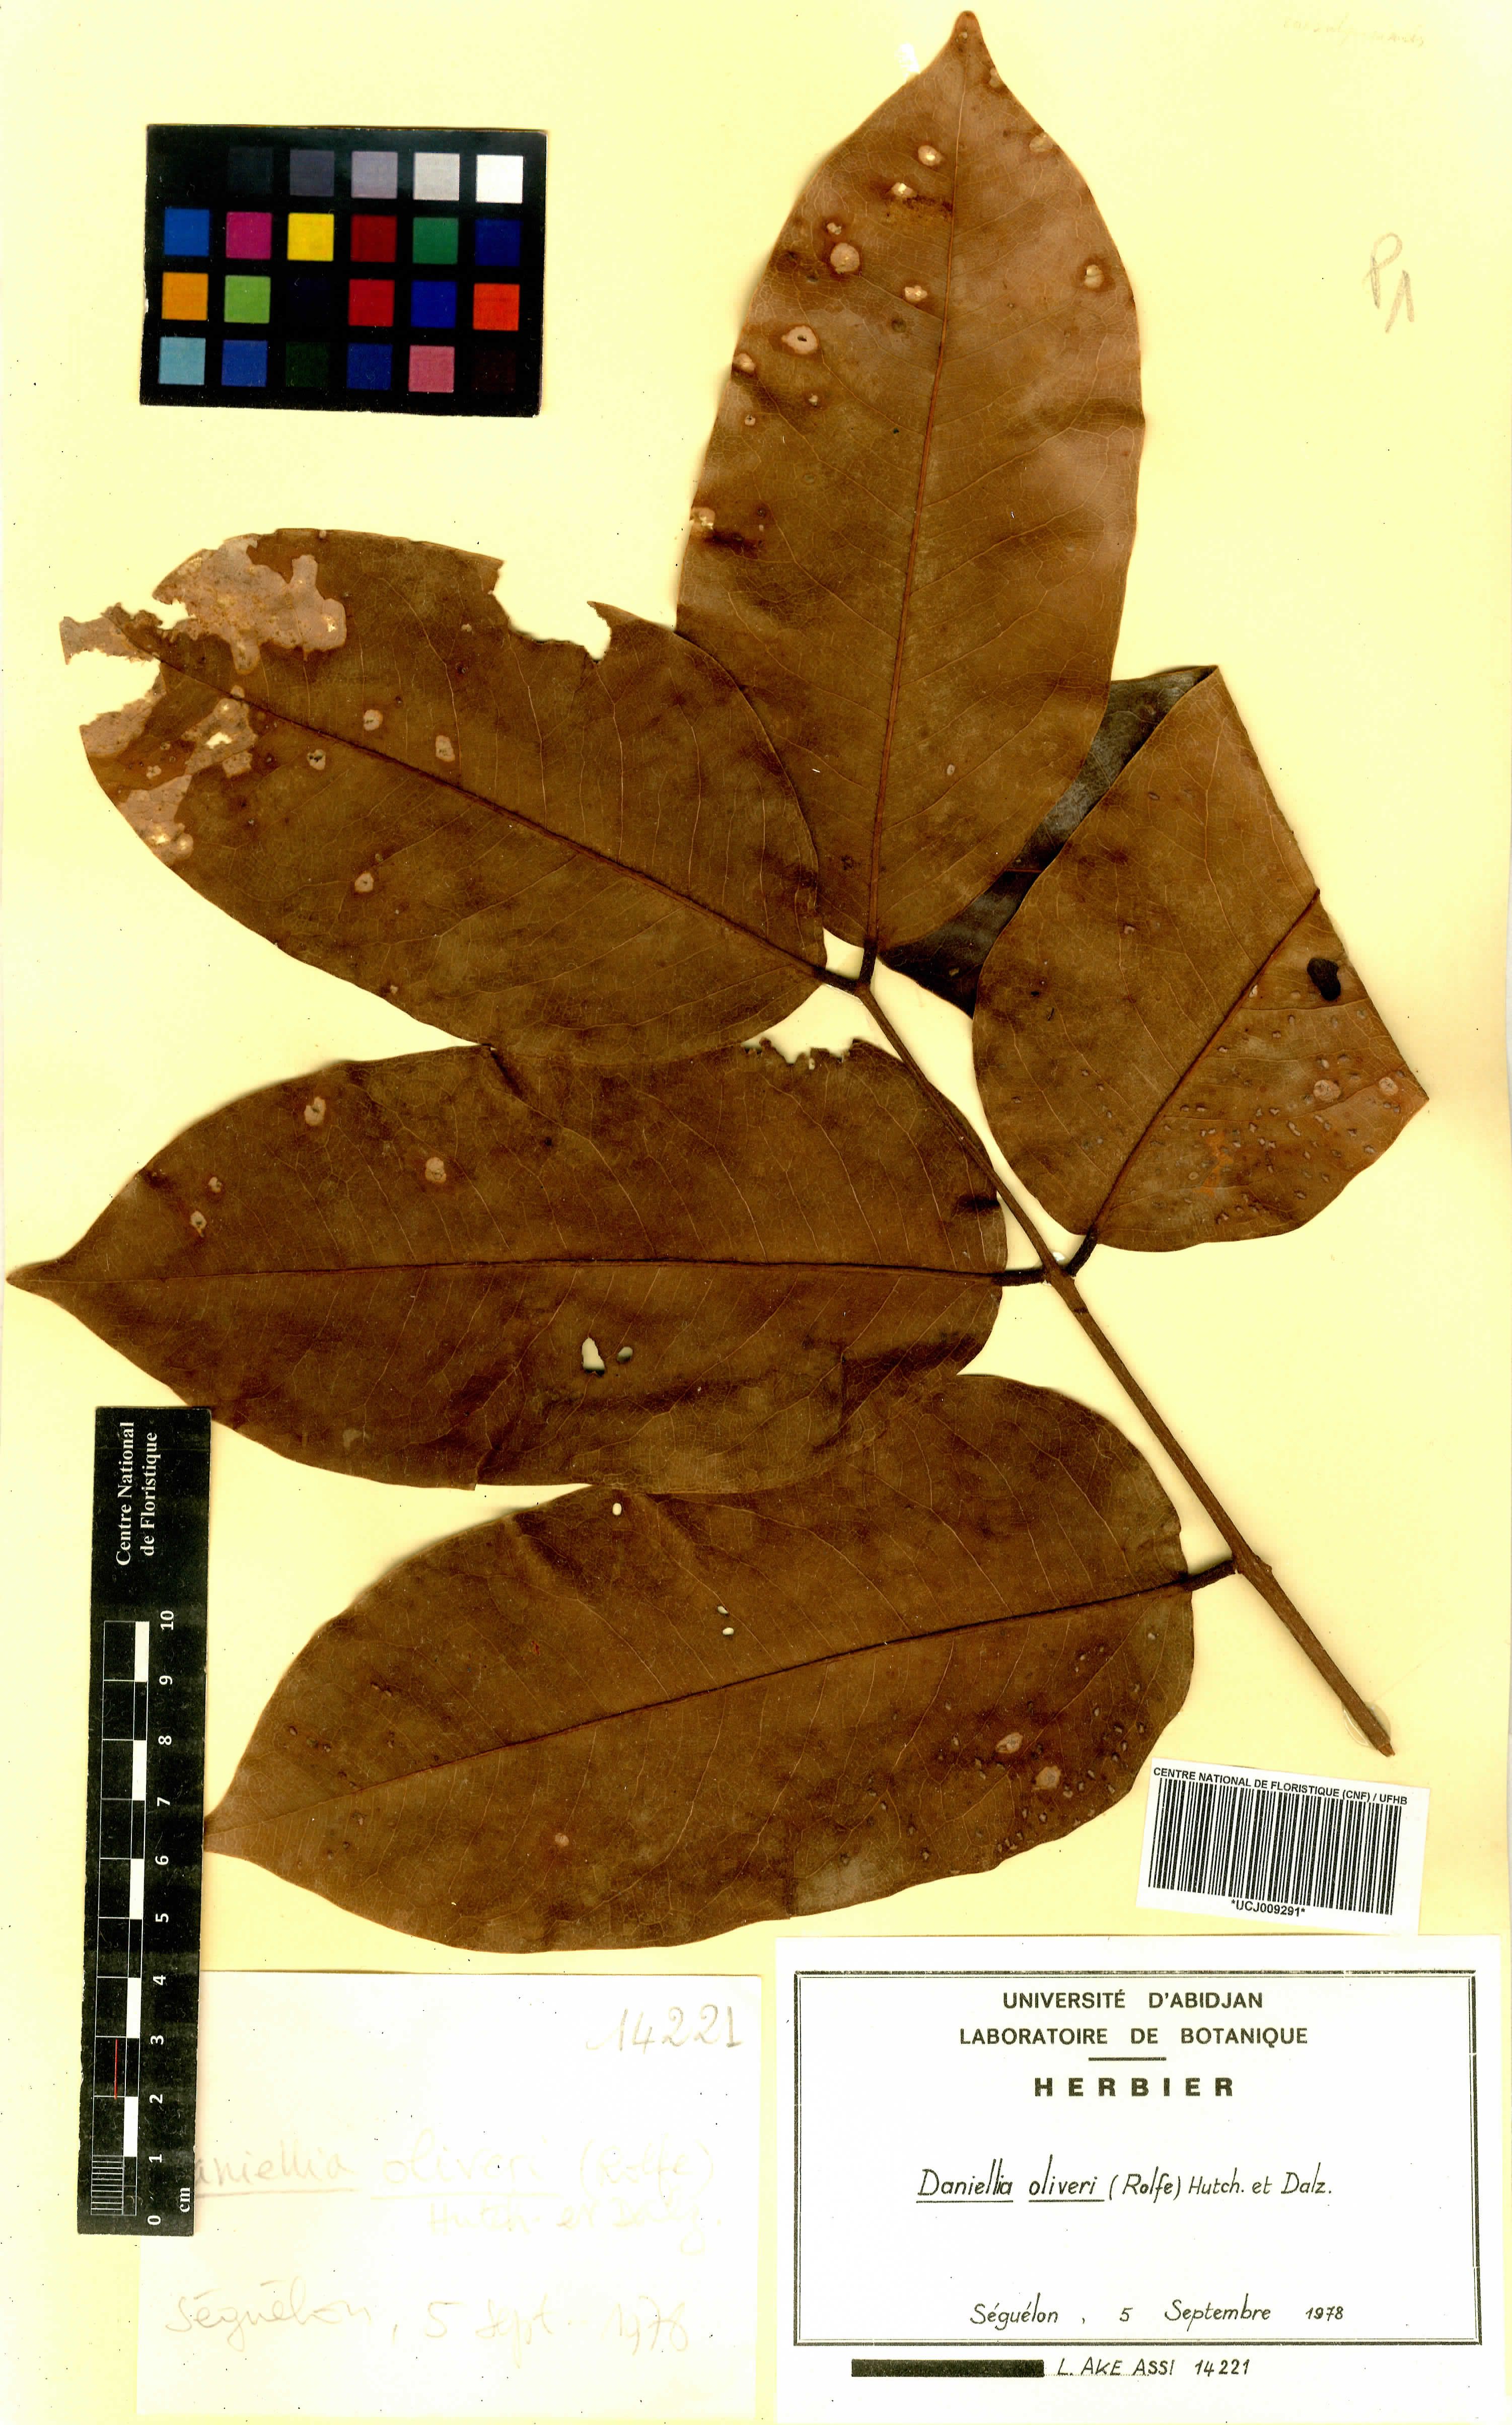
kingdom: Plantae
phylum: Tracheophyta
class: Magnoliopsida
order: Fabales
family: Fabaceae
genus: Daniellia
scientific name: Daniellia oliveri
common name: African copaiba balsamtree
